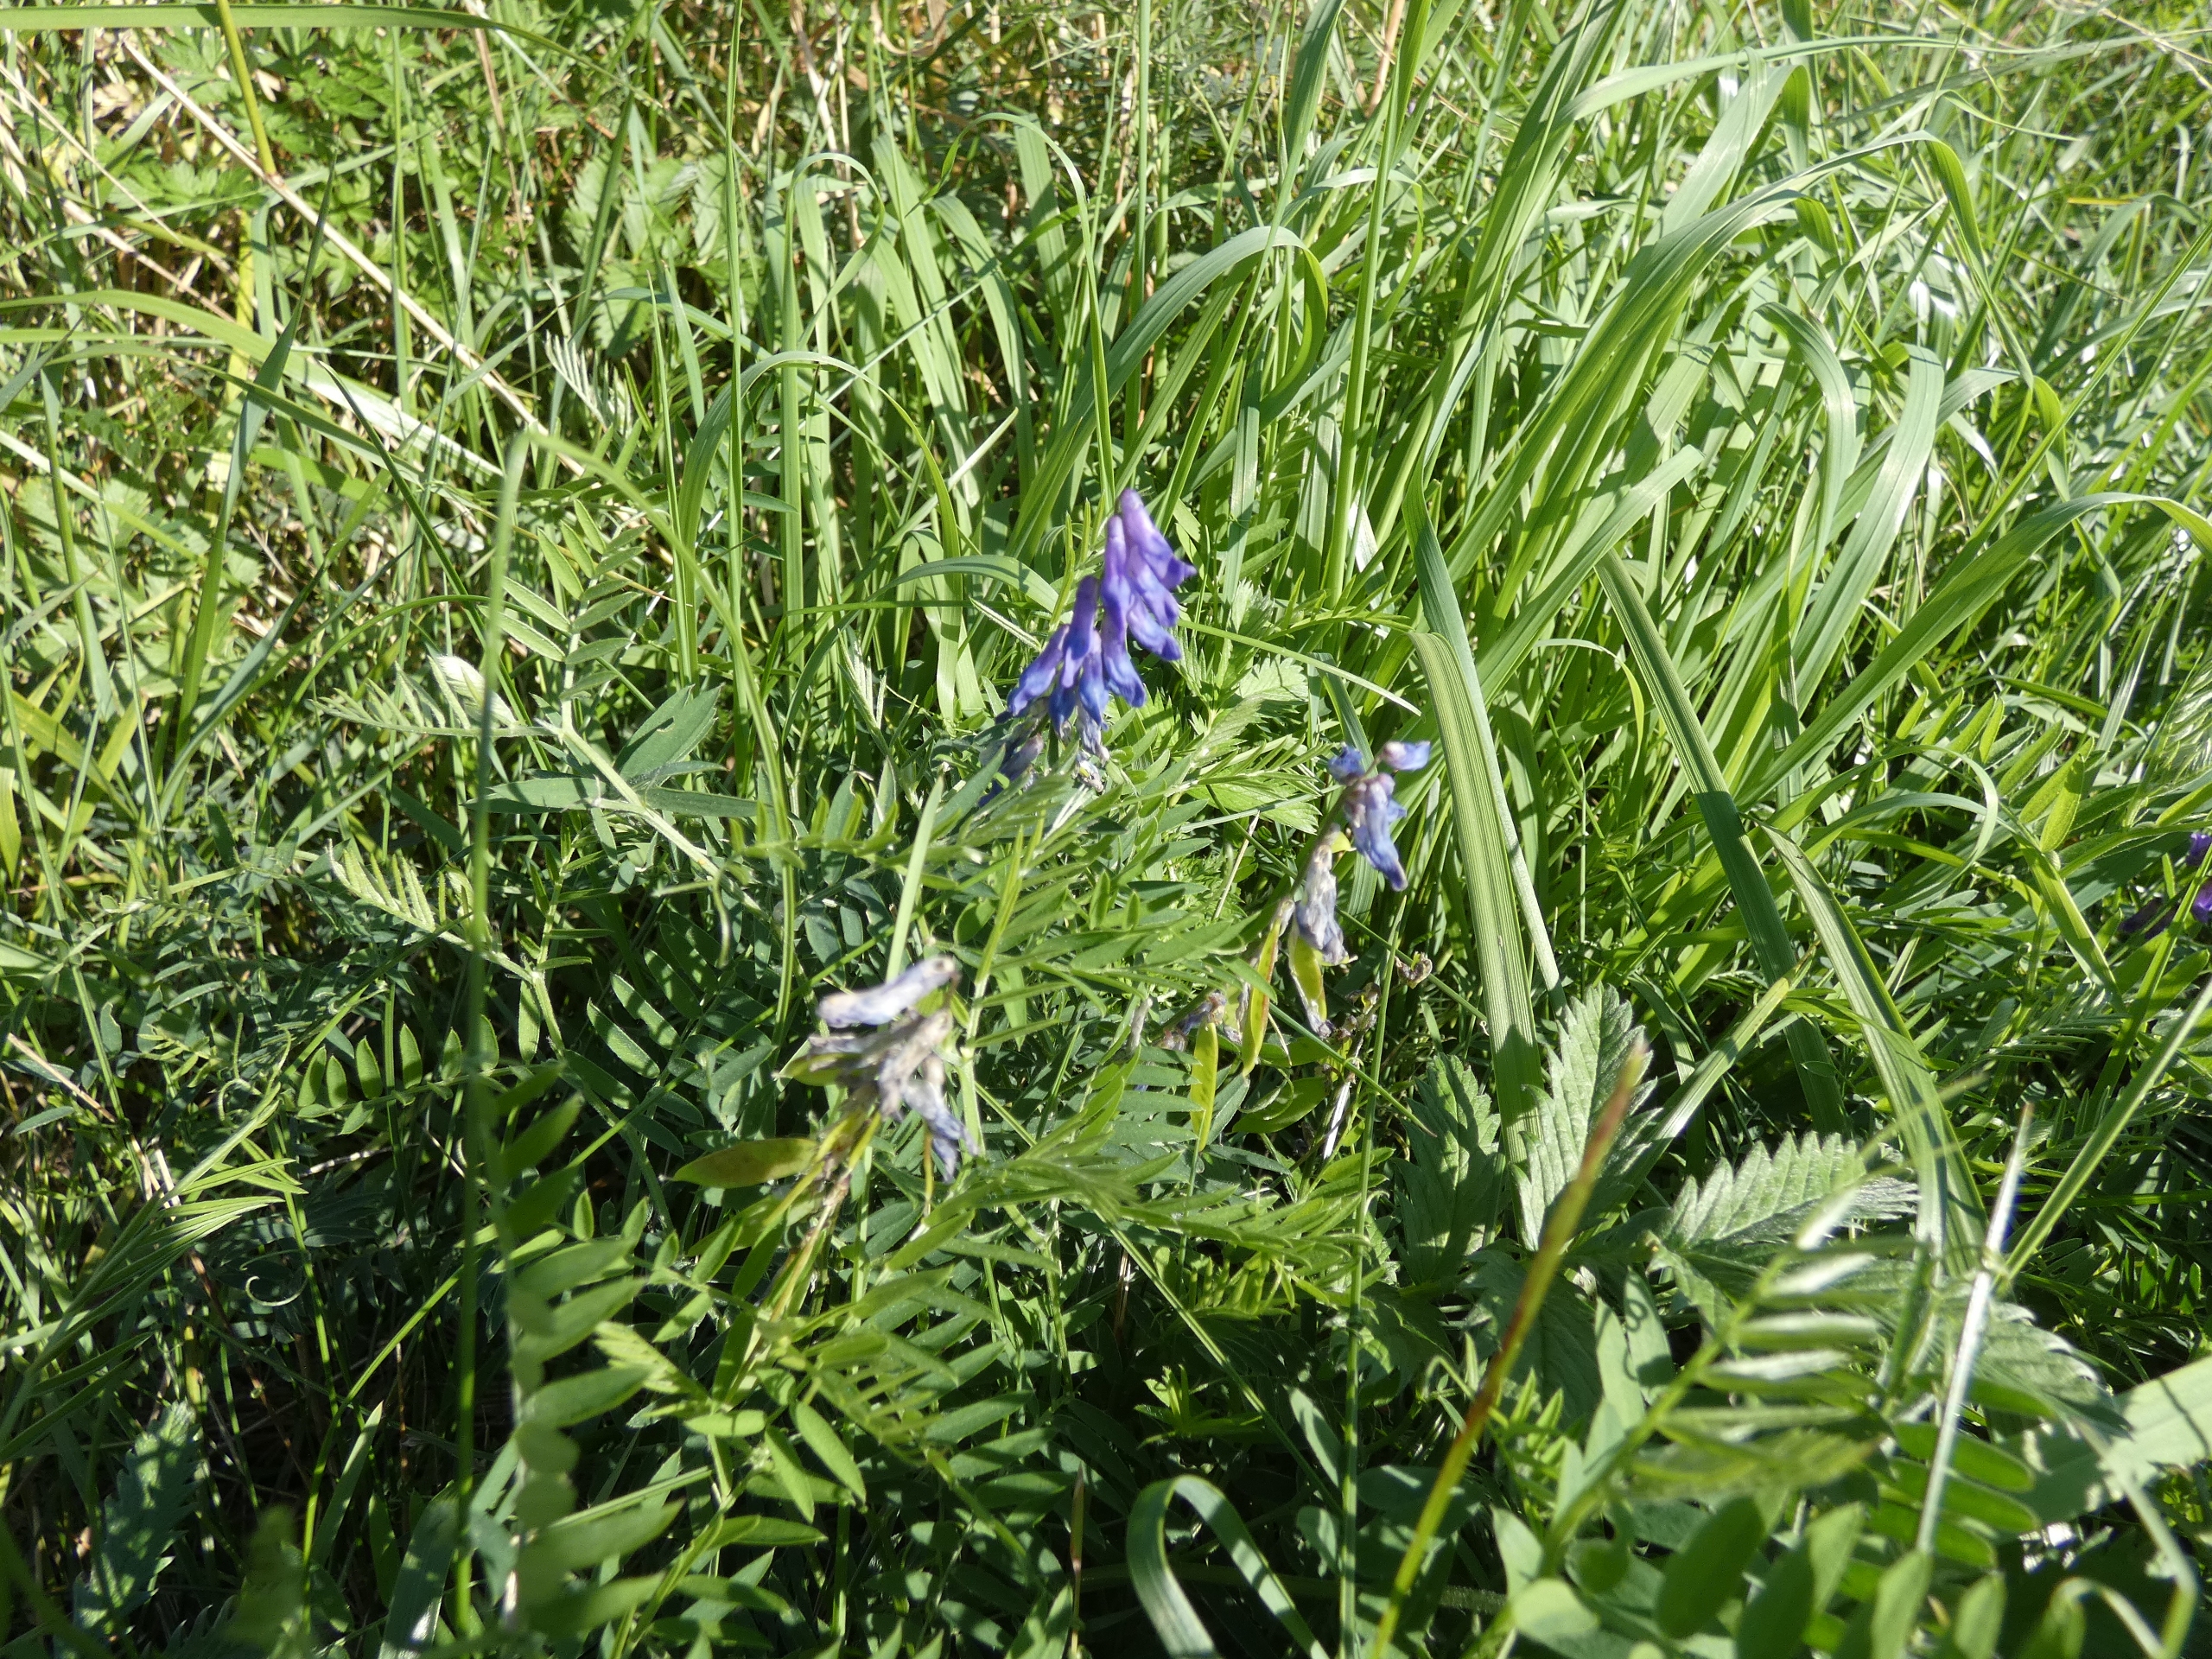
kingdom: Plantae
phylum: Tracheophyta
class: Magnoliopsida
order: Fabales
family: Fabaceae
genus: Vicia
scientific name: Vicia cracca
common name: Muse-vikke
